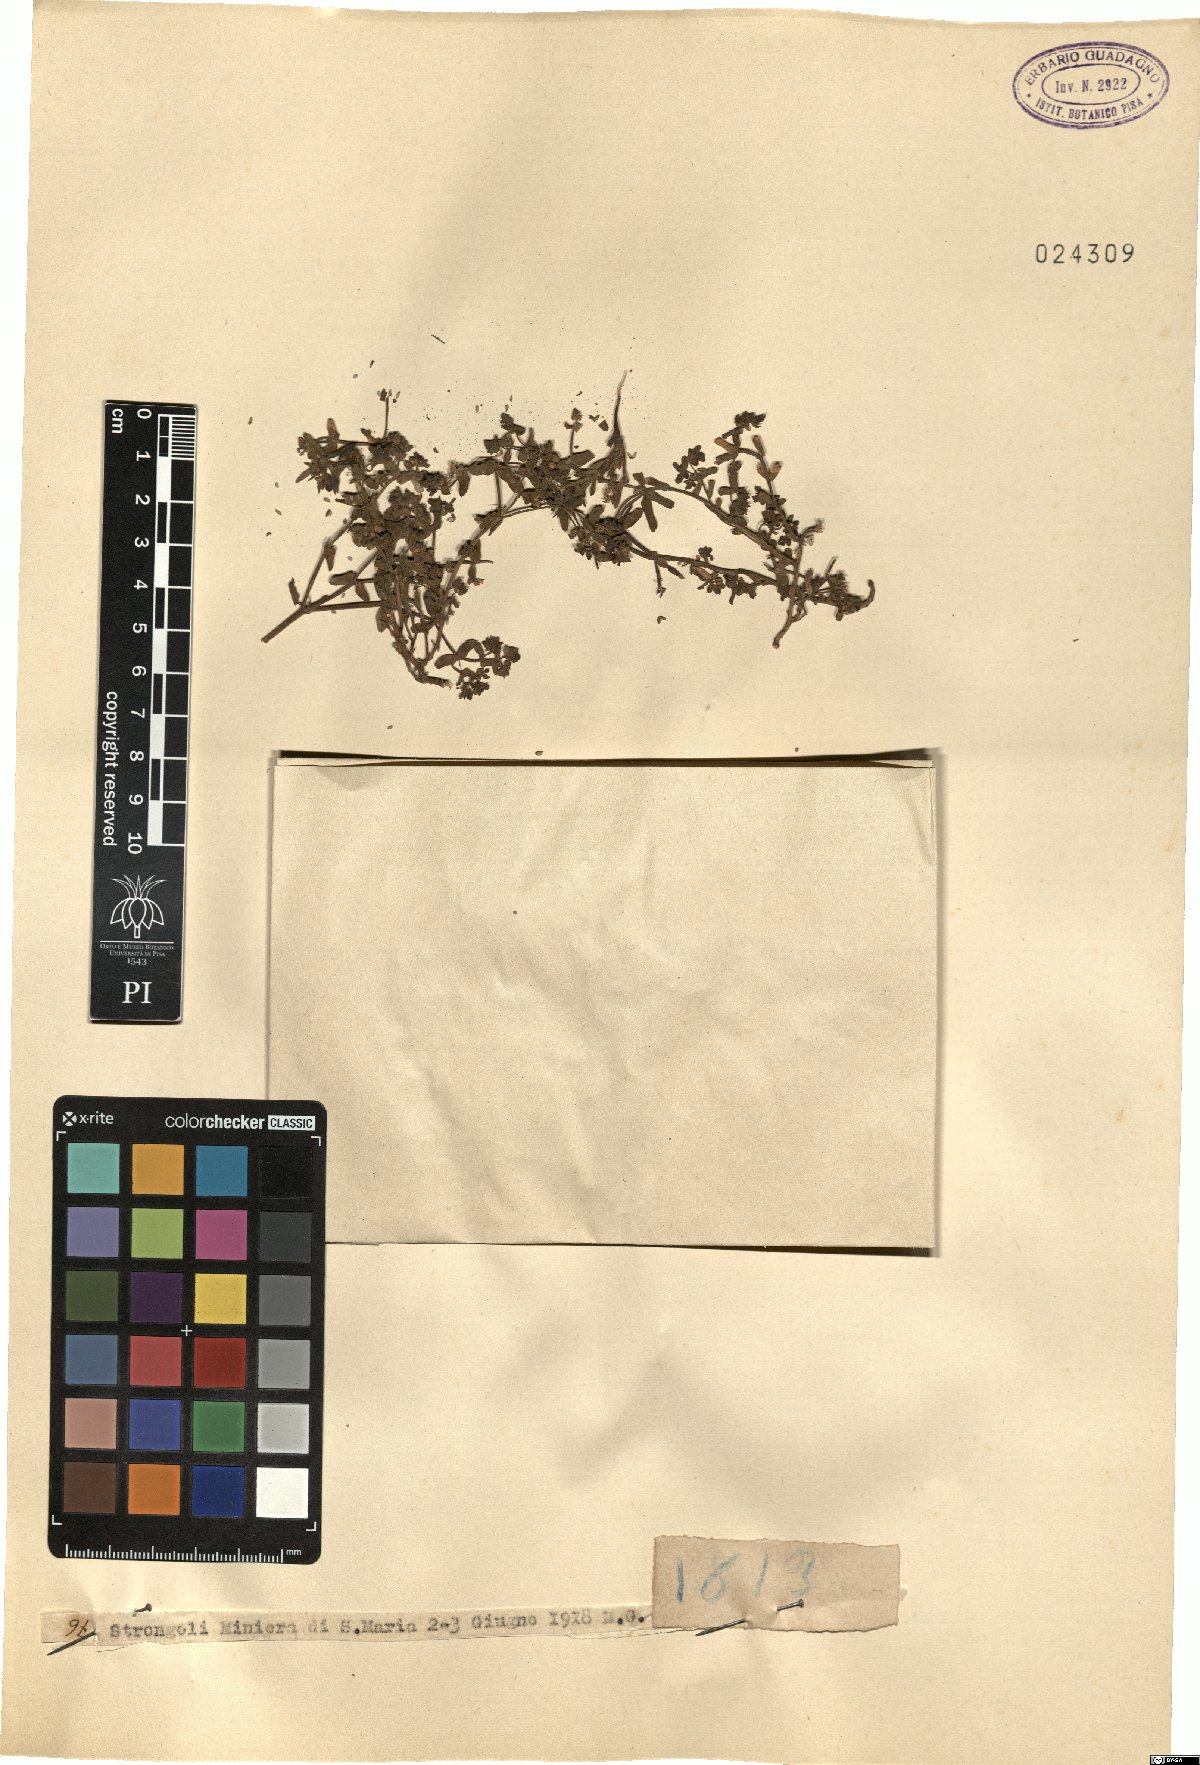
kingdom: Plantae
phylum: Tracheophyta
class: Magnoliopsida
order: Malpighiales
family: Euphorbiaceae
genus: Euphorbia
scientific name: Euphorbia
